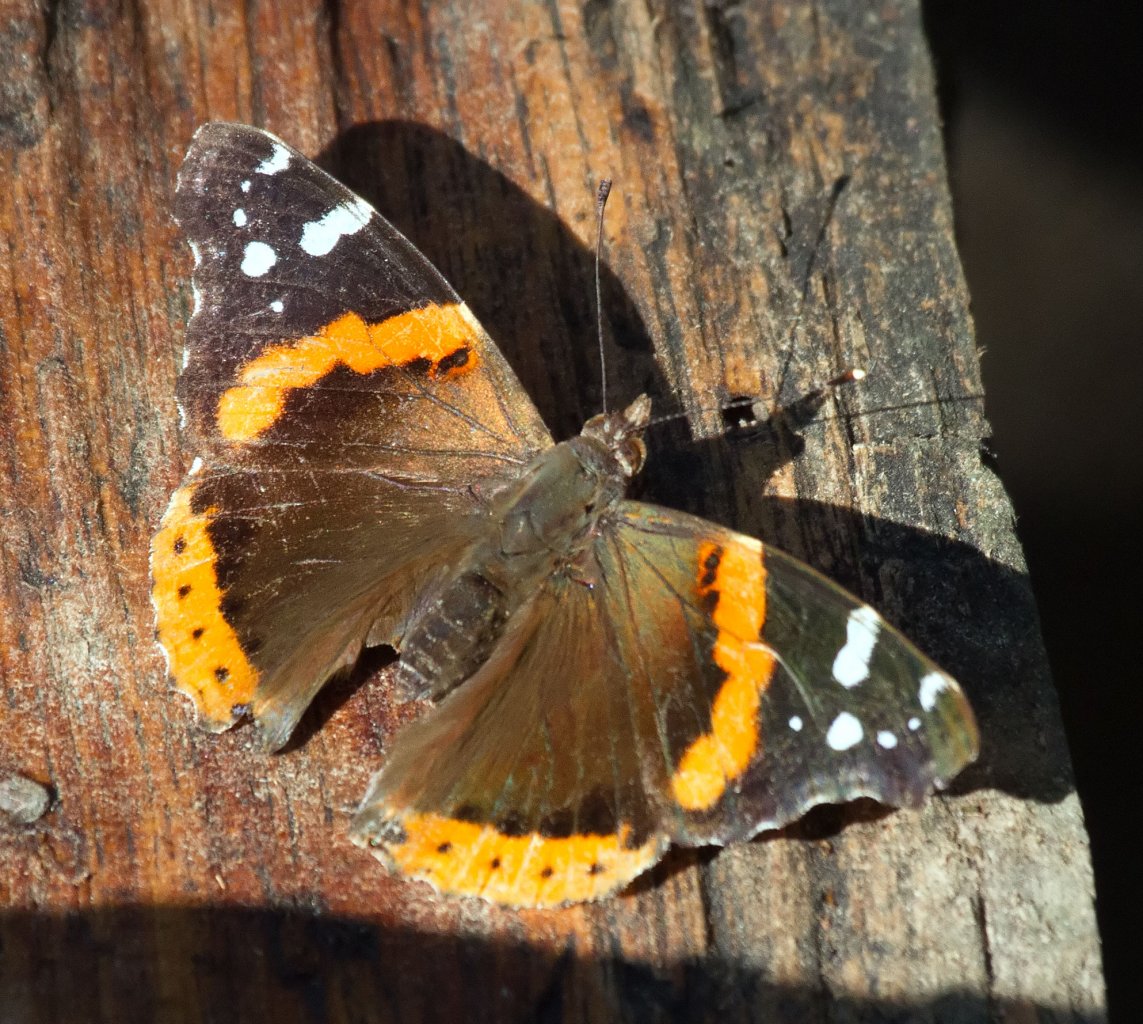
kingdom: Animalia
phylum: Arthropoda
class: Insecta
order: Lepidoptera
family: Nymphalidae
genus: Vanessa
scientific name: Vanessa atalanta
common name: Red Admiral
